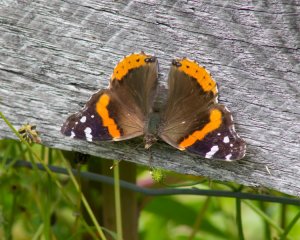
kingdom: Animalia
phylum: Arthropoda
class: Insecta
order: Lepidoptera
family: Nymphalidae
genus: Vanessa
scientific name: Vanessa atalanta
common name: Red Admiral
